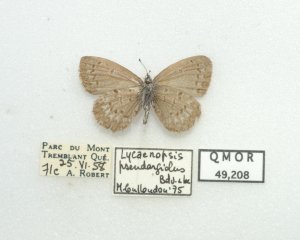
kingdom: Animalia
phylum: Arthropoda
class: Insecta
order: Lepidoptera
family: Lycaenidae
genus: Celastrina
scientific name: Celastrina lucia
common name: Northern Spring Azure
